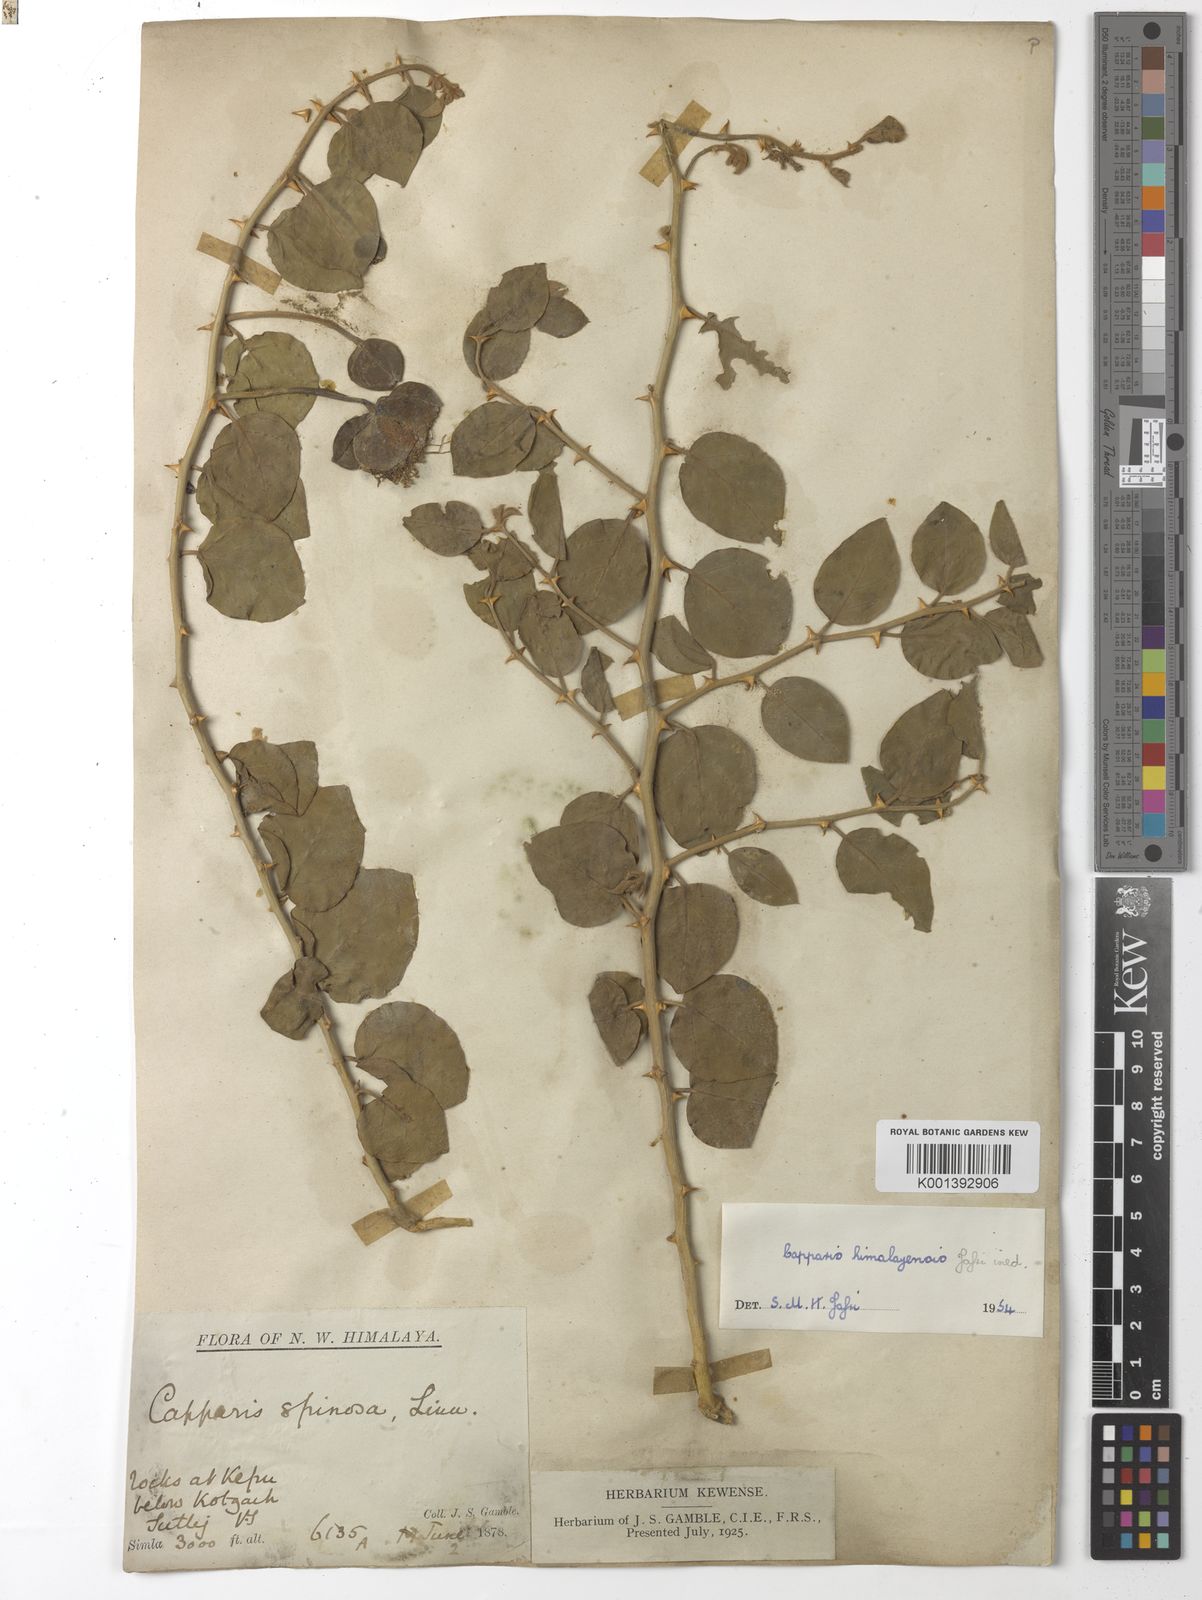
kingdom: Plantae
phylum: Tracheophyta
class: Magnoliopsida
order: Brassicales
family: Capparaceae
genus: Capparis
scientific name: Capparis spinosa
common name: Caper
